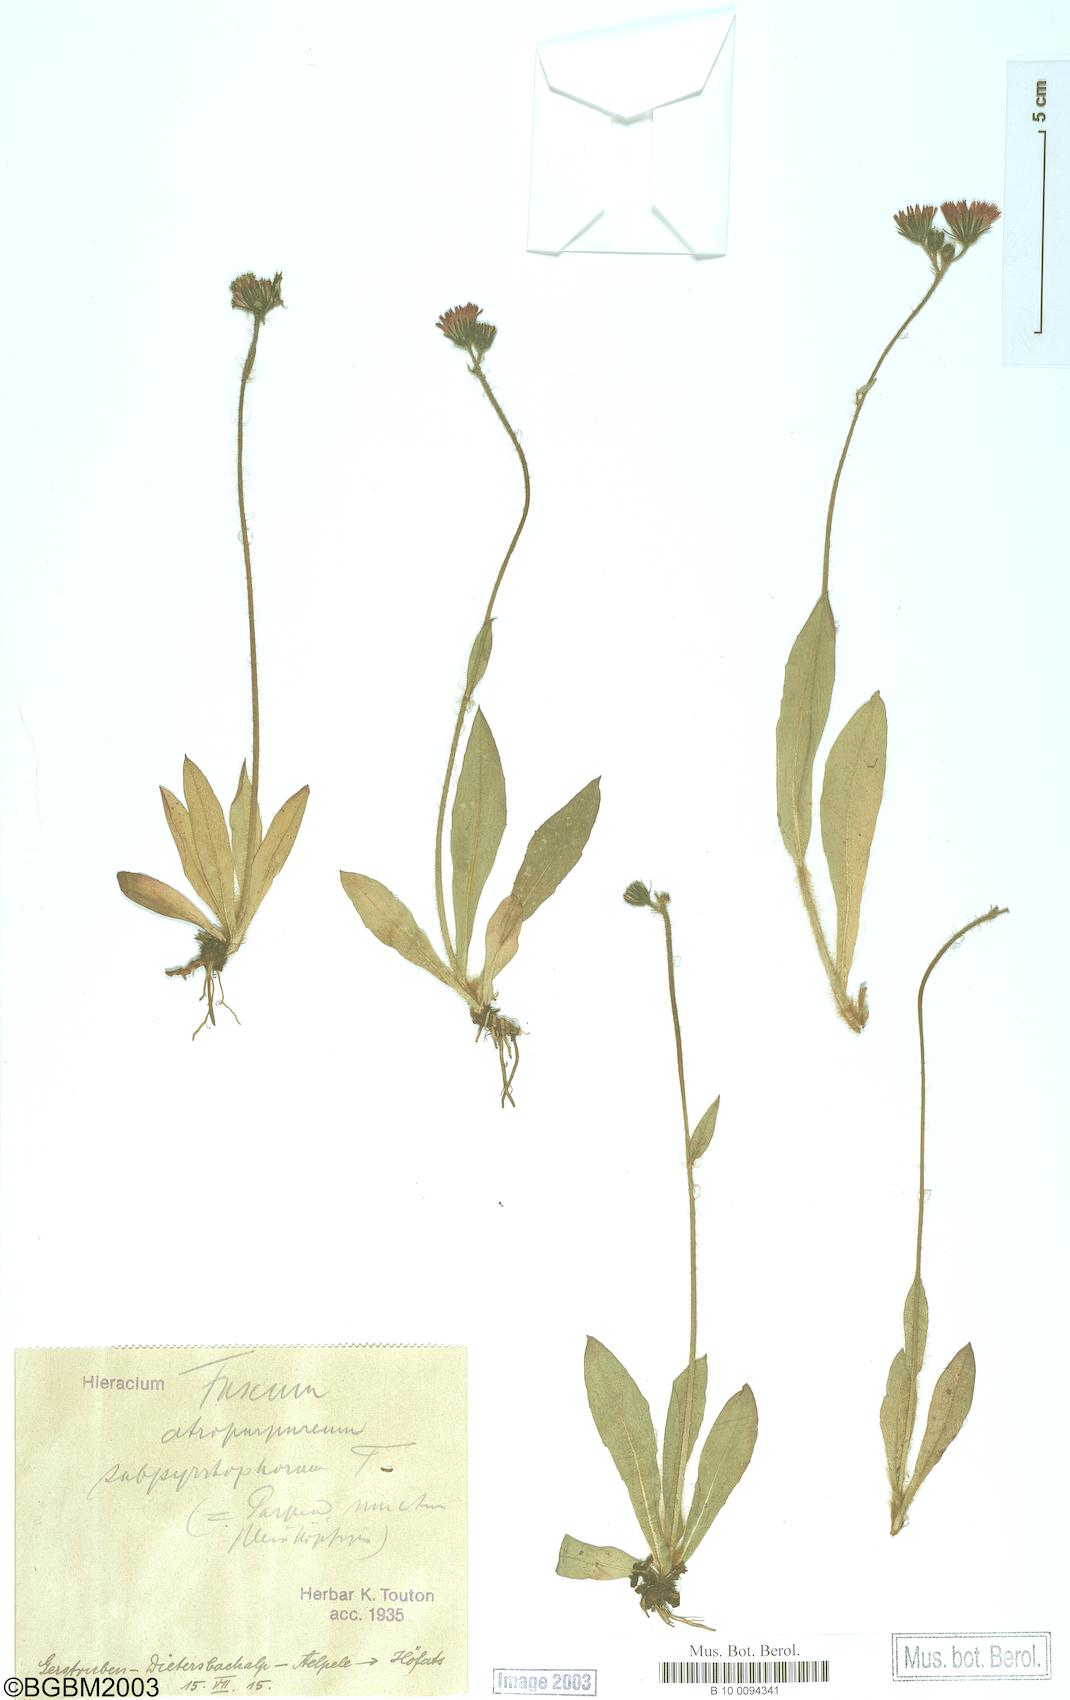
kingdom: Plantae
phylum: Tracheophyta
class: Magnoliopsida
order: Asterales
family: Asteraceae
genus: Hieracium
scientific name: Hieracium fuscum
